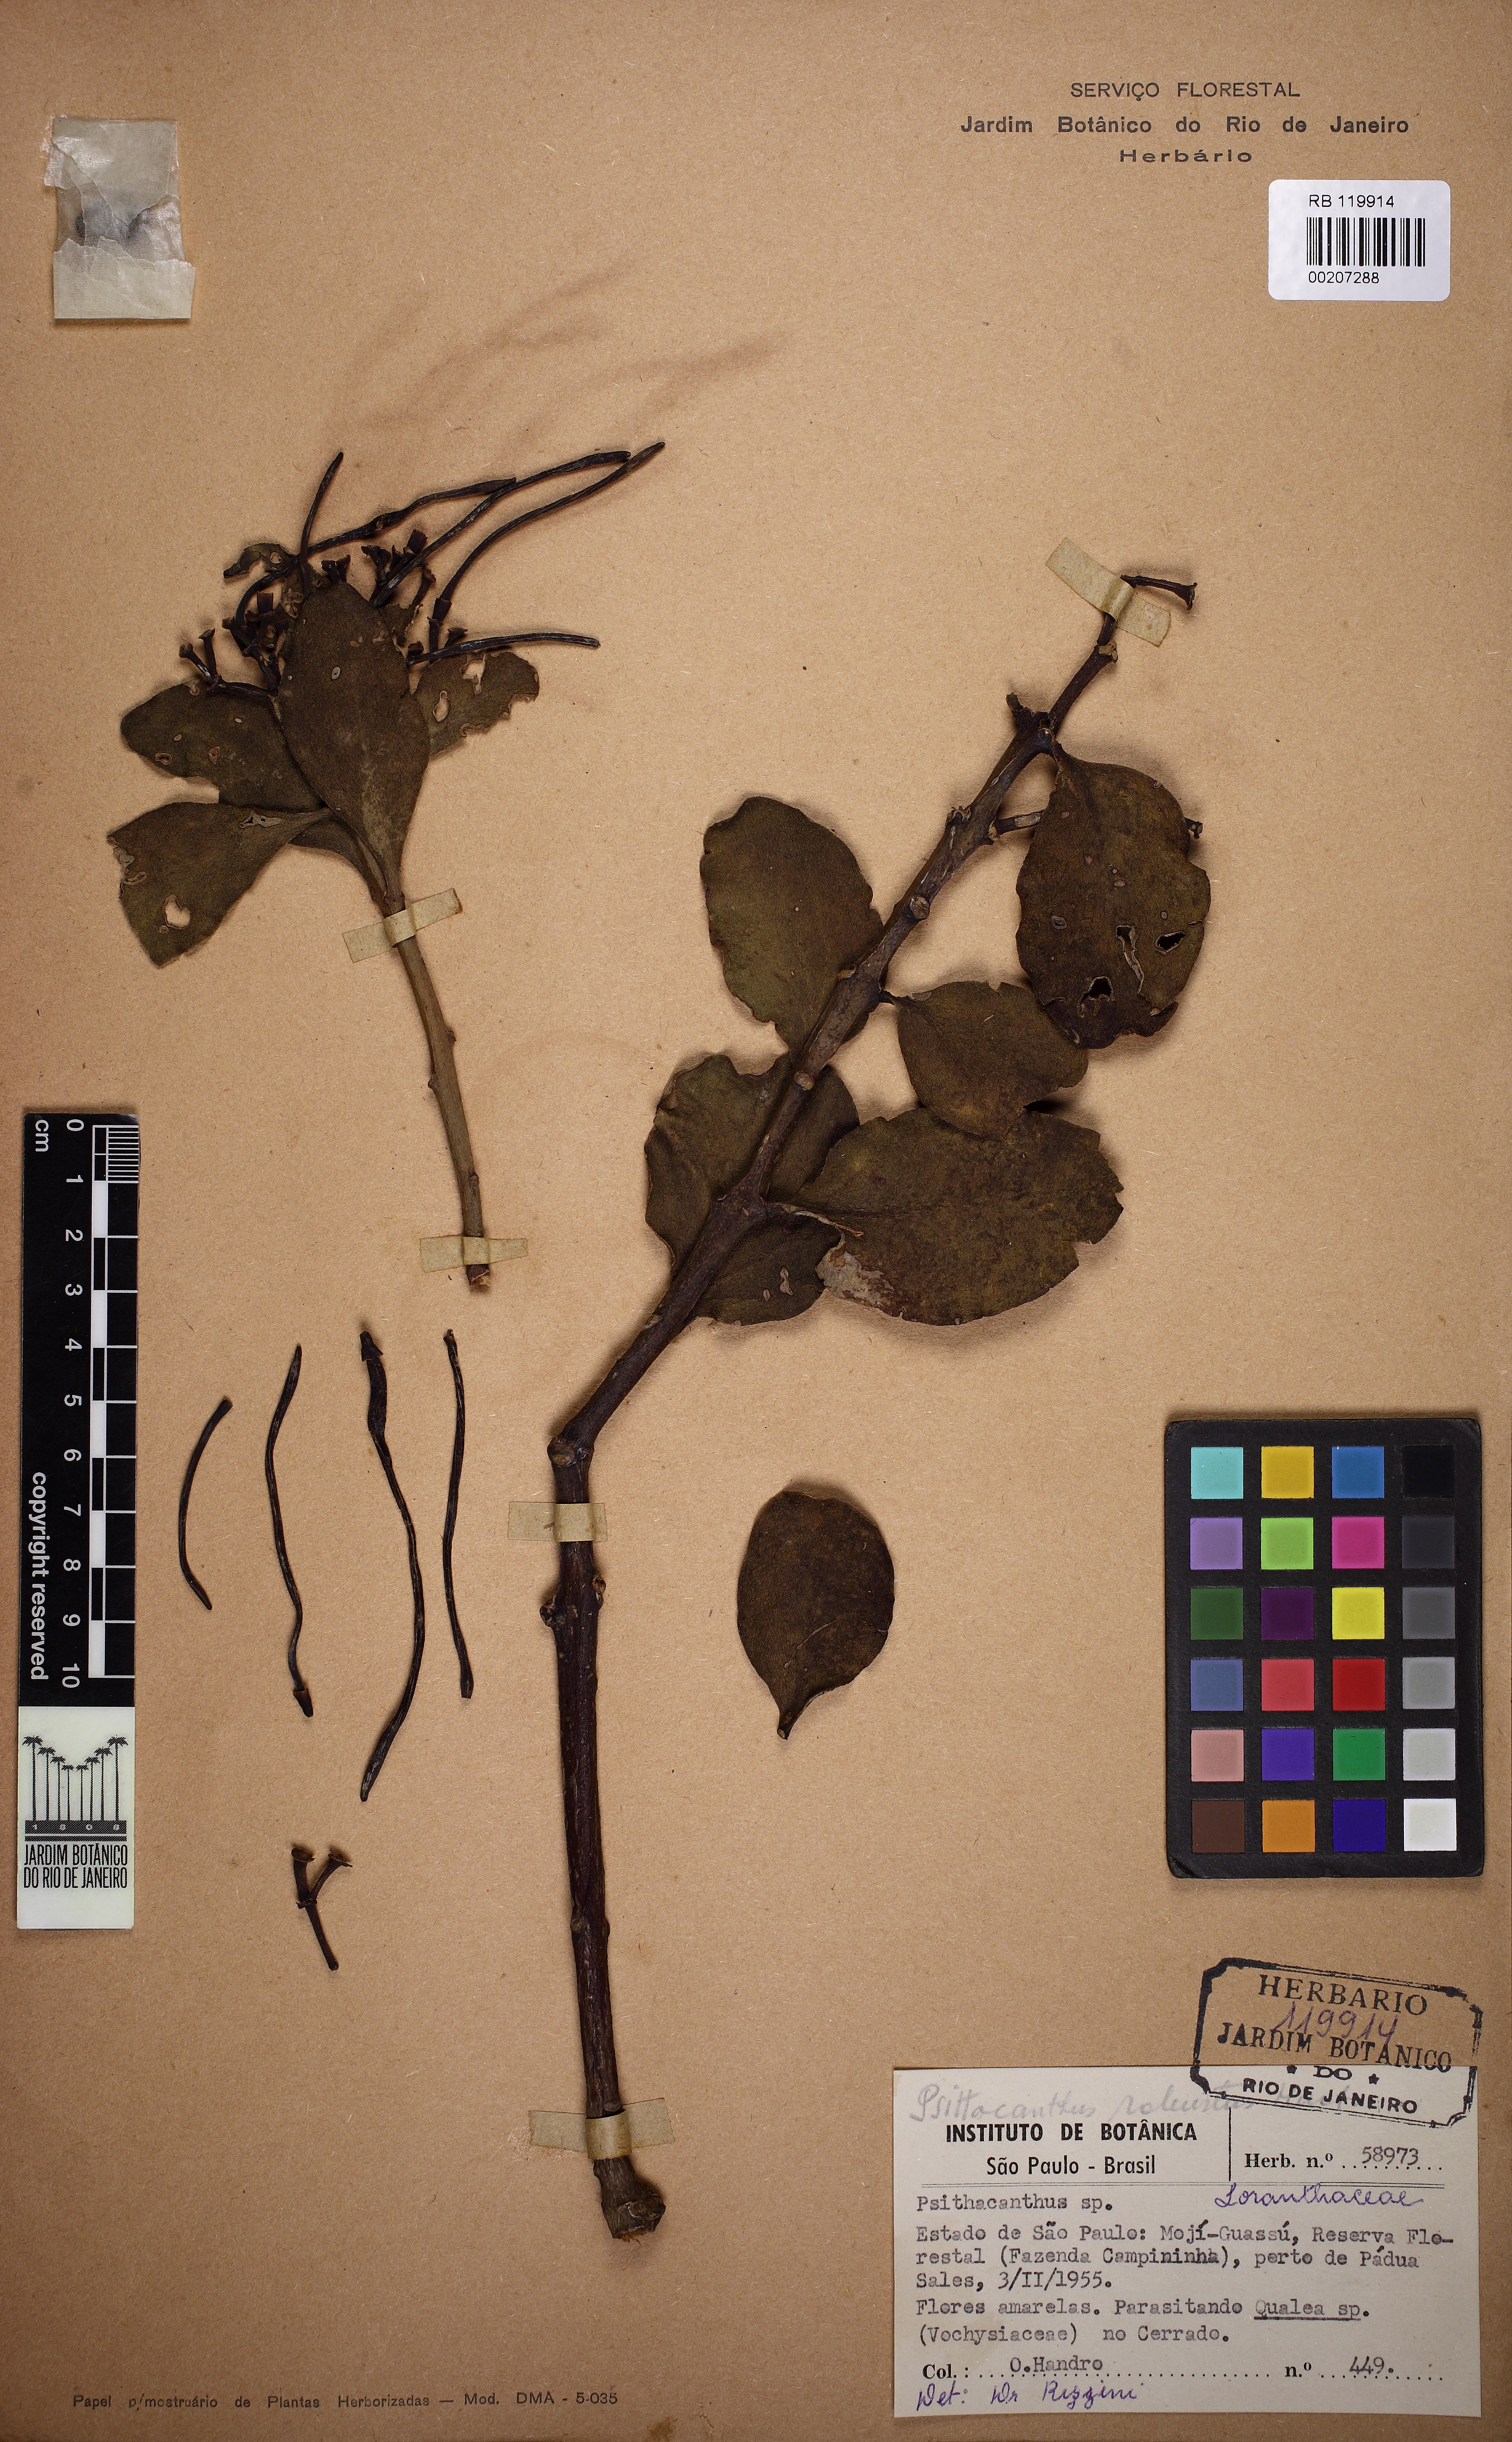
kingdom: Plantae
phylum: Tracheophyta
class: Magnoliopsida
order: Santalales
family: Loranthaceae
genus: Psittacanthus
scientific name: Psittacanthus robustus
